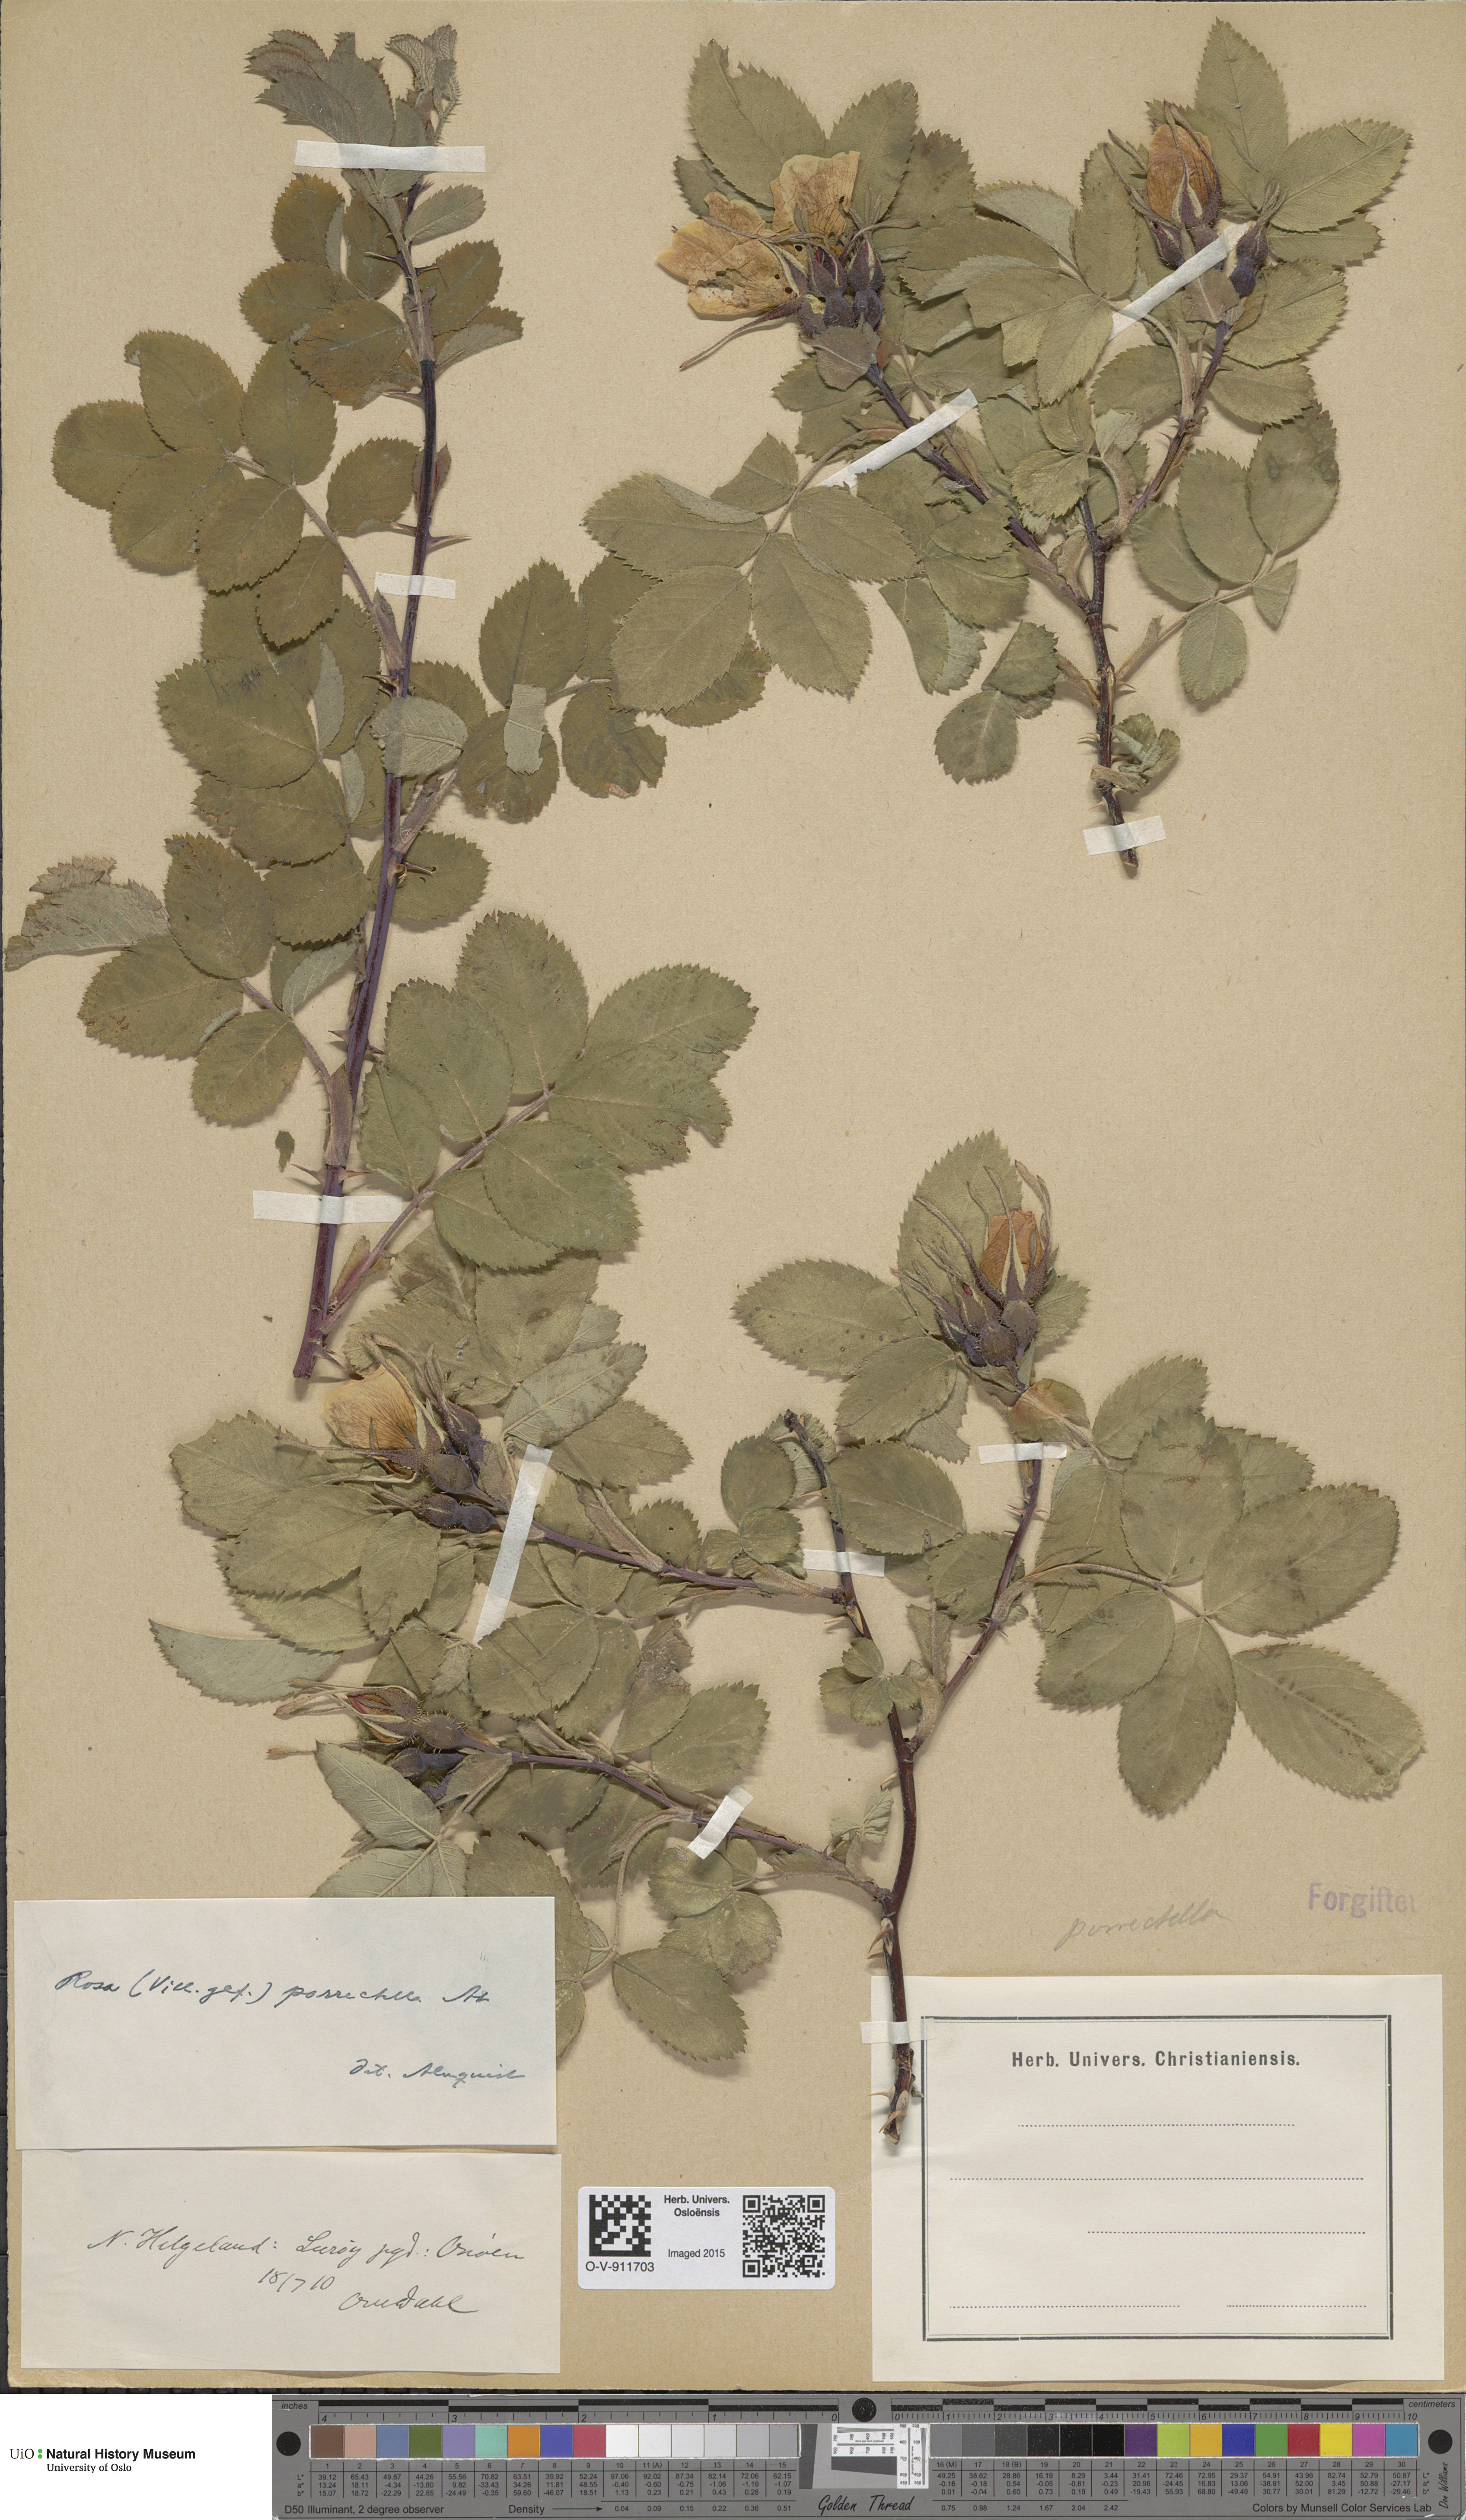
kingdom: Plantae
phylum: Tracheophyta
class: Magnoliopsida
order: Rosales
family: Rosaceae
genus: Rosa
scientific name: Rosa mollis
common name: Rose
